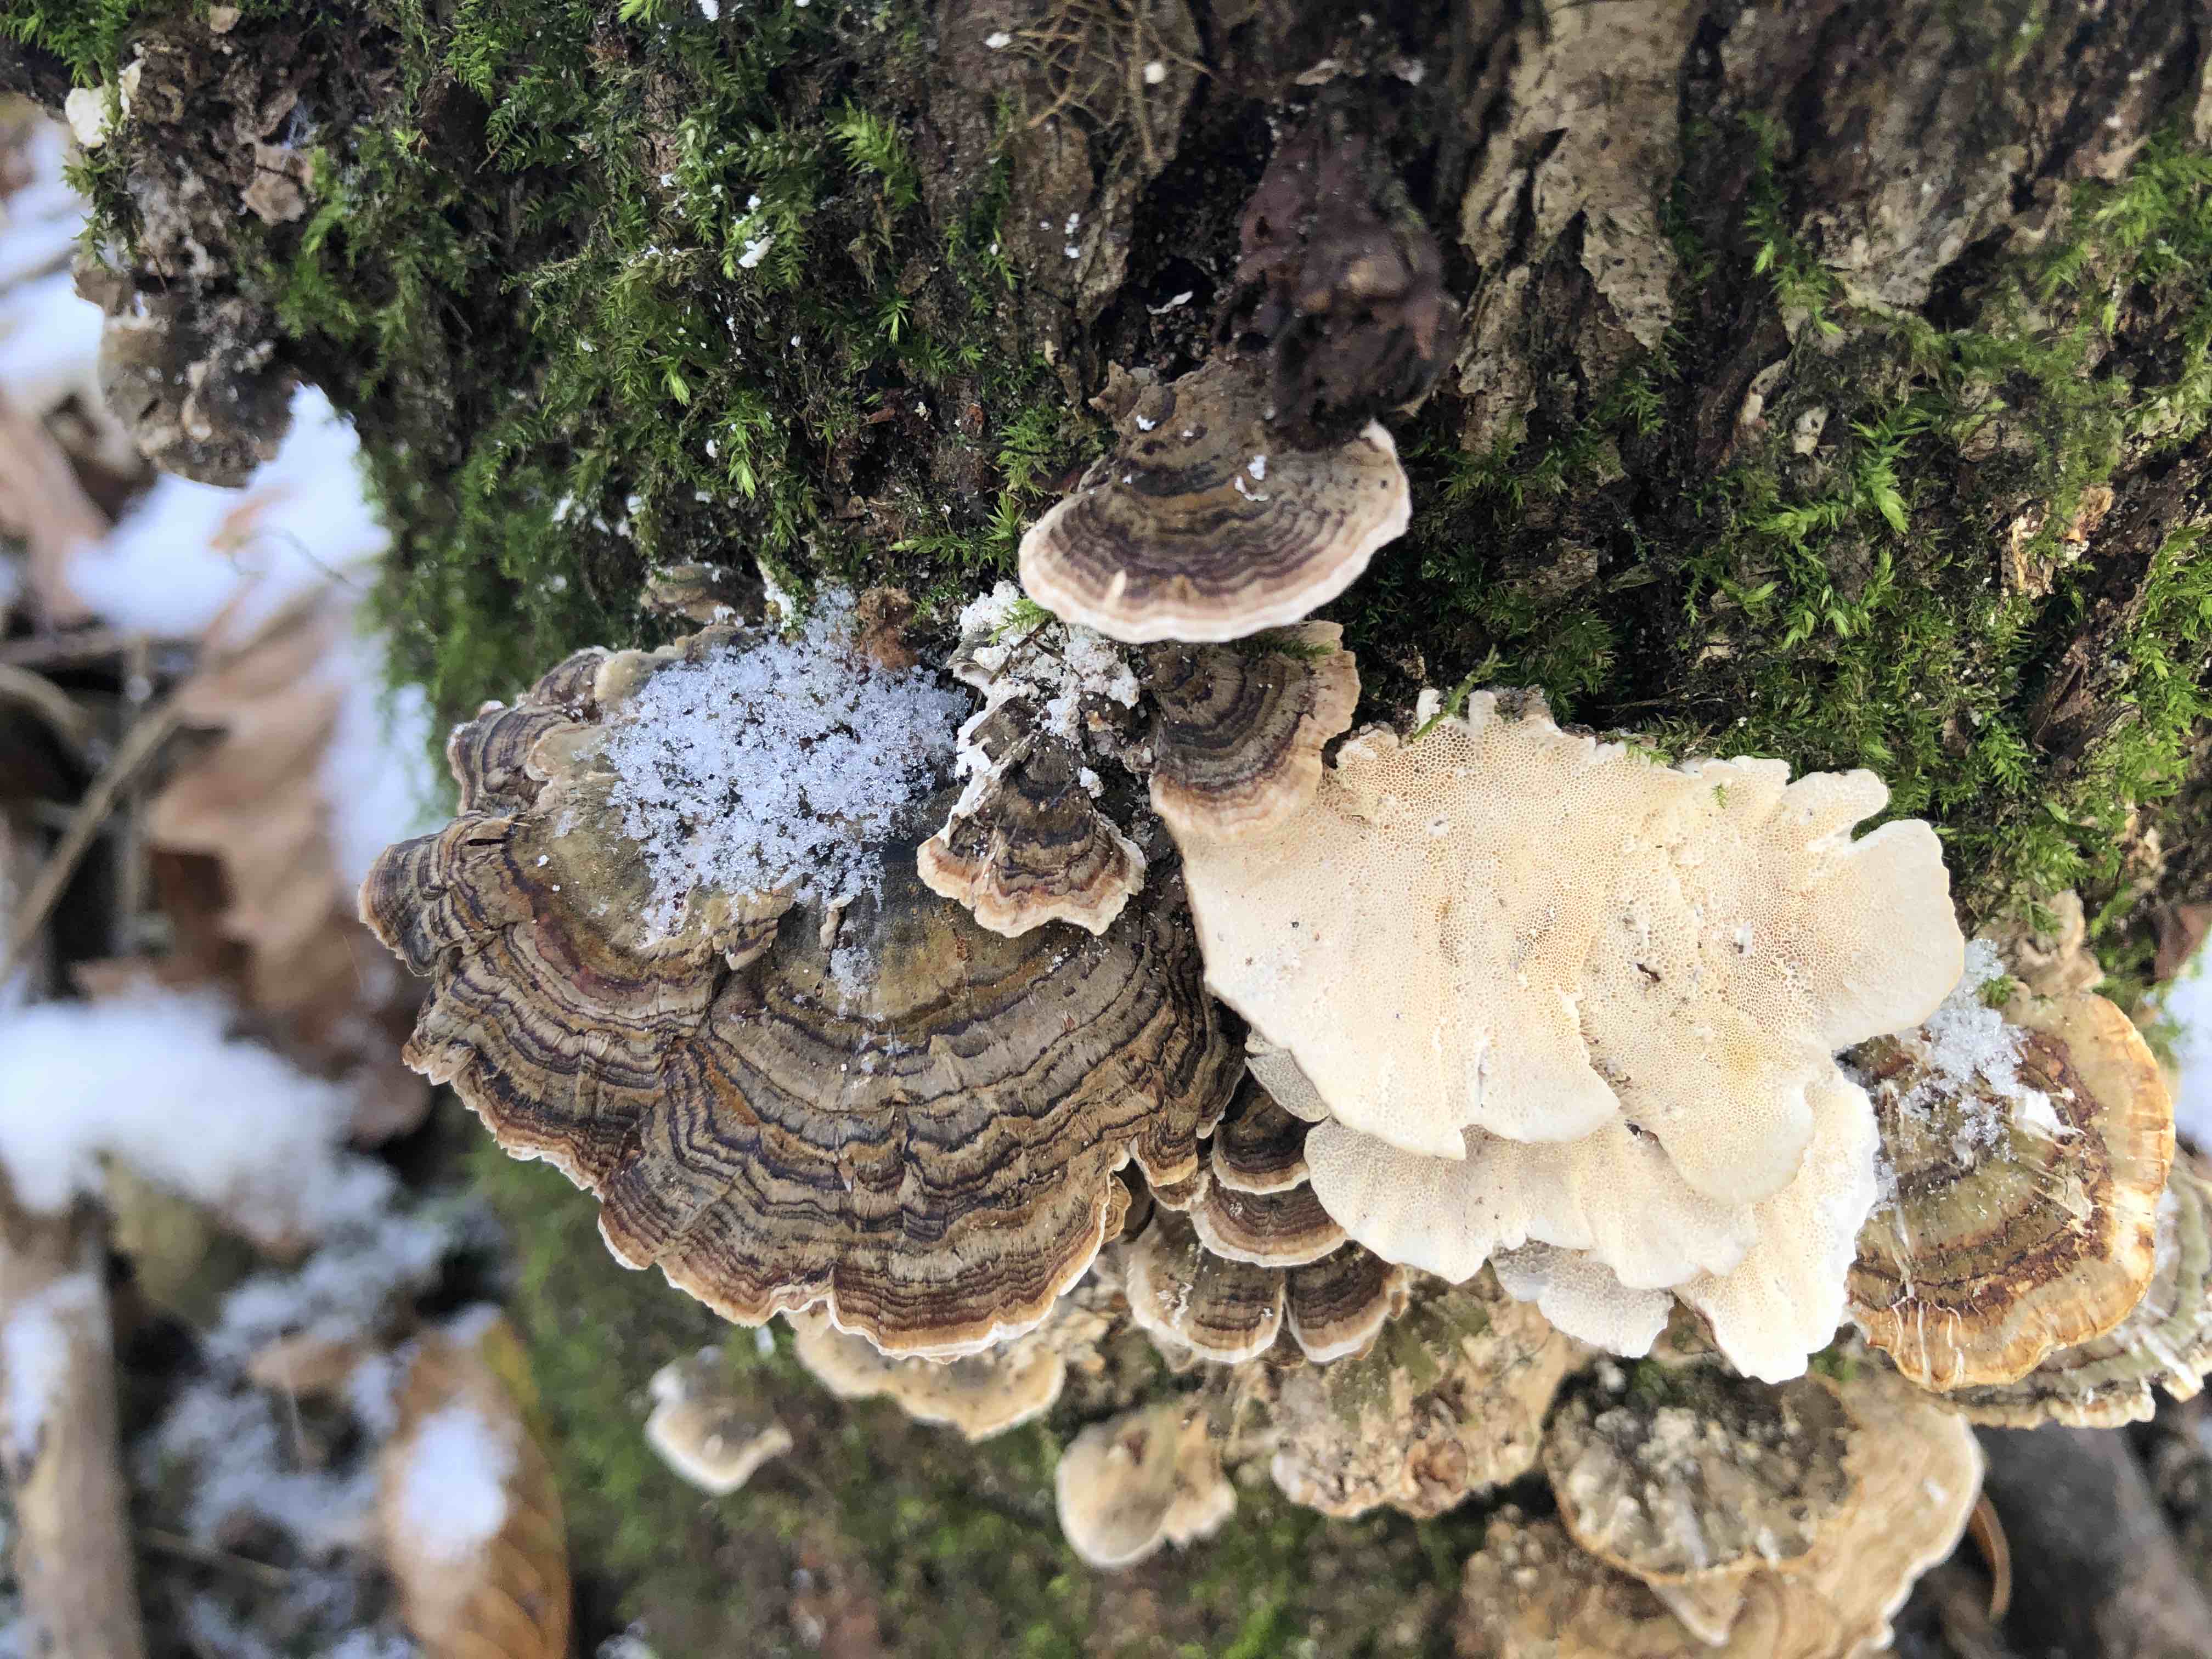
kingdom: Fungi
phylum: Basidiomycota
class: Agaricomycetes
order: Polyporales
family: Polyporaceae
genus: Trametes
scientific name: Trametes versicolor
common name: broget læderporesvamp
